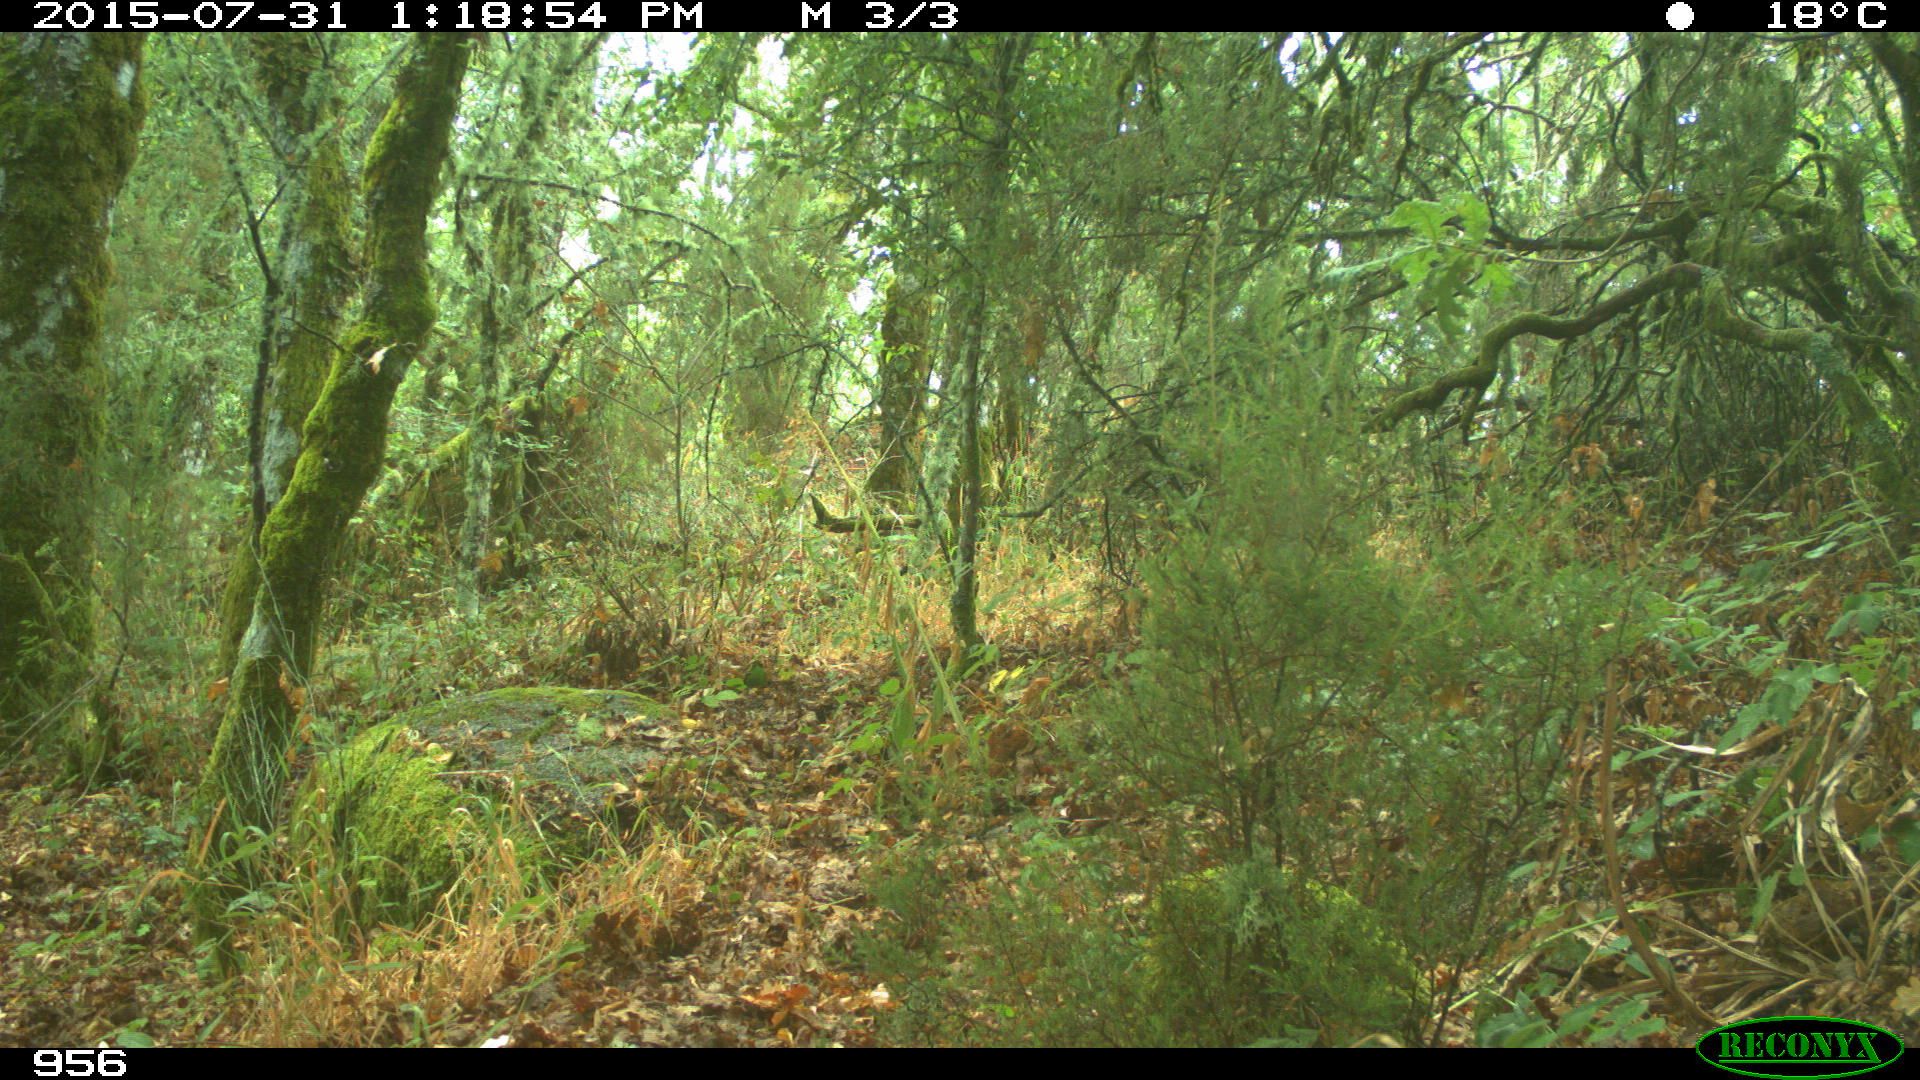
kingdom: Animalia
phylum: Chordata
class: Mammalia
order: Artiodactyla
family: Bovidae
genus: Bos
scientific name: Bos taurus
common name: Domesticated cattle
